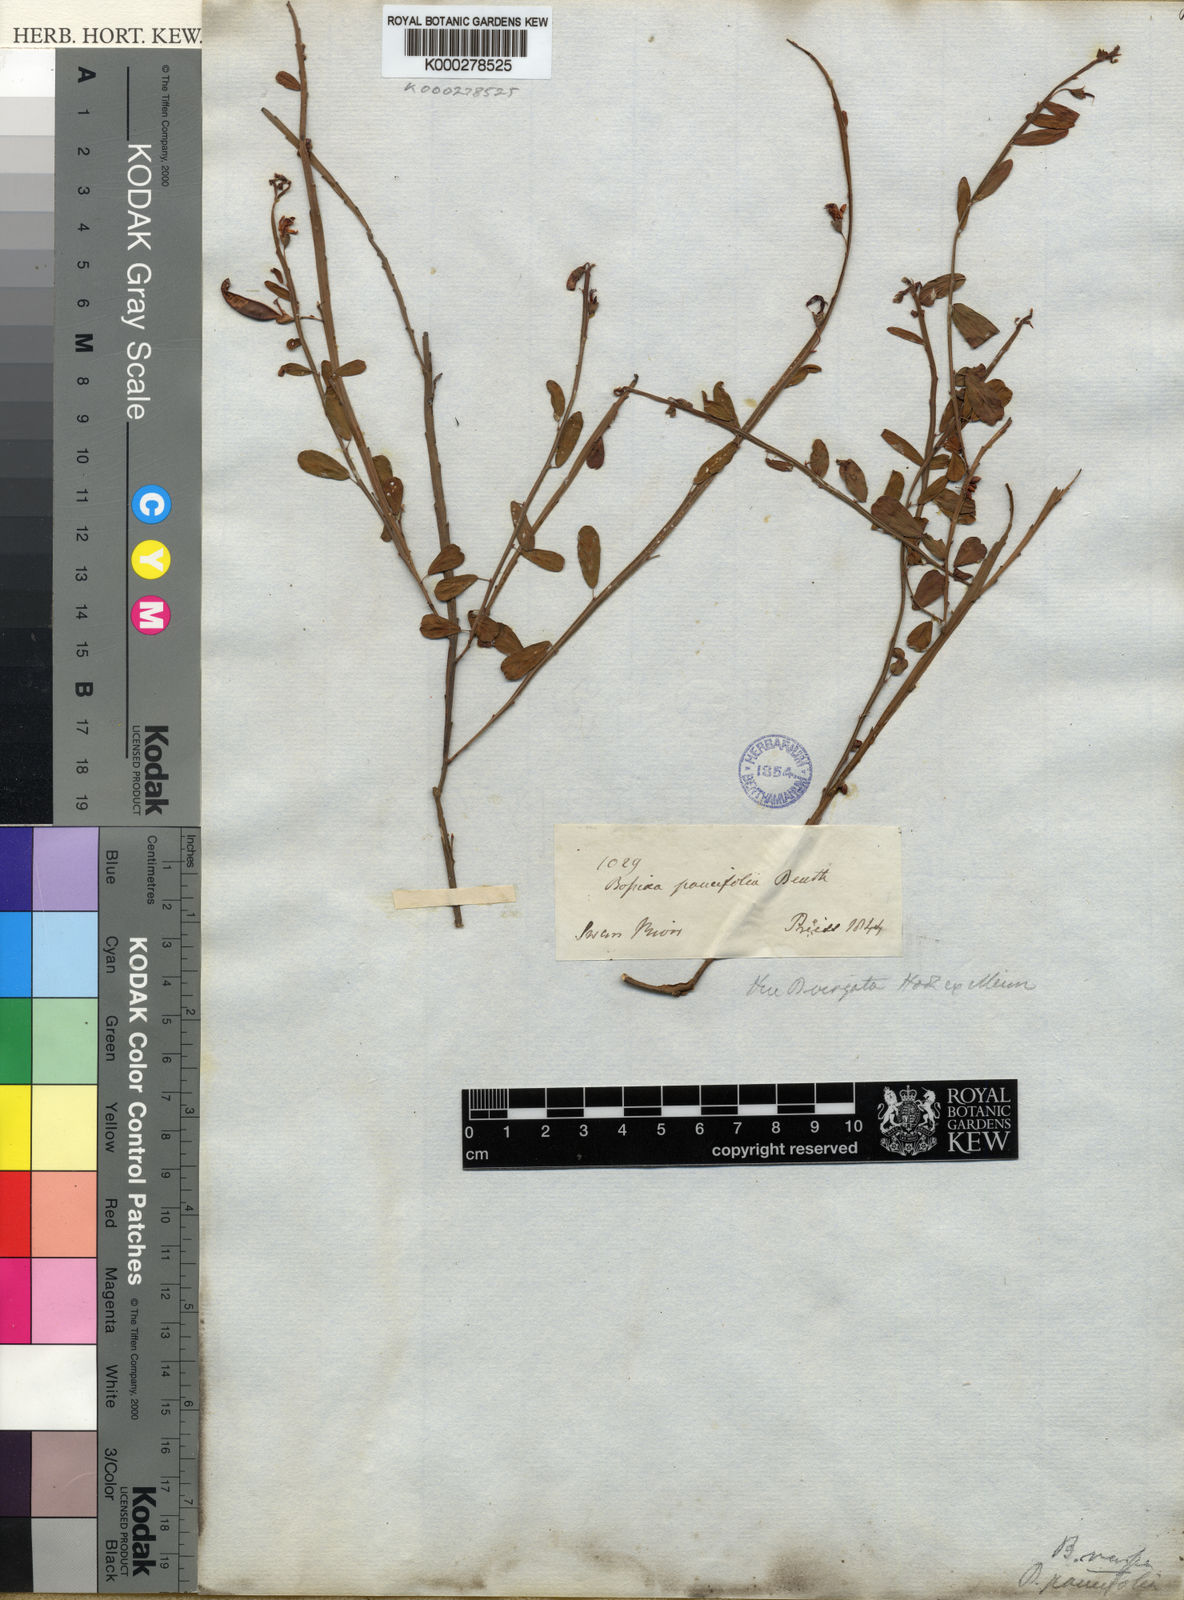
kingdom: Plantae
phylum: Tracheophyta
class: Magnoliopsida
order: Fabales
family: Fabaceae
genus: Bossiaea
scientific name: Bossiaea
